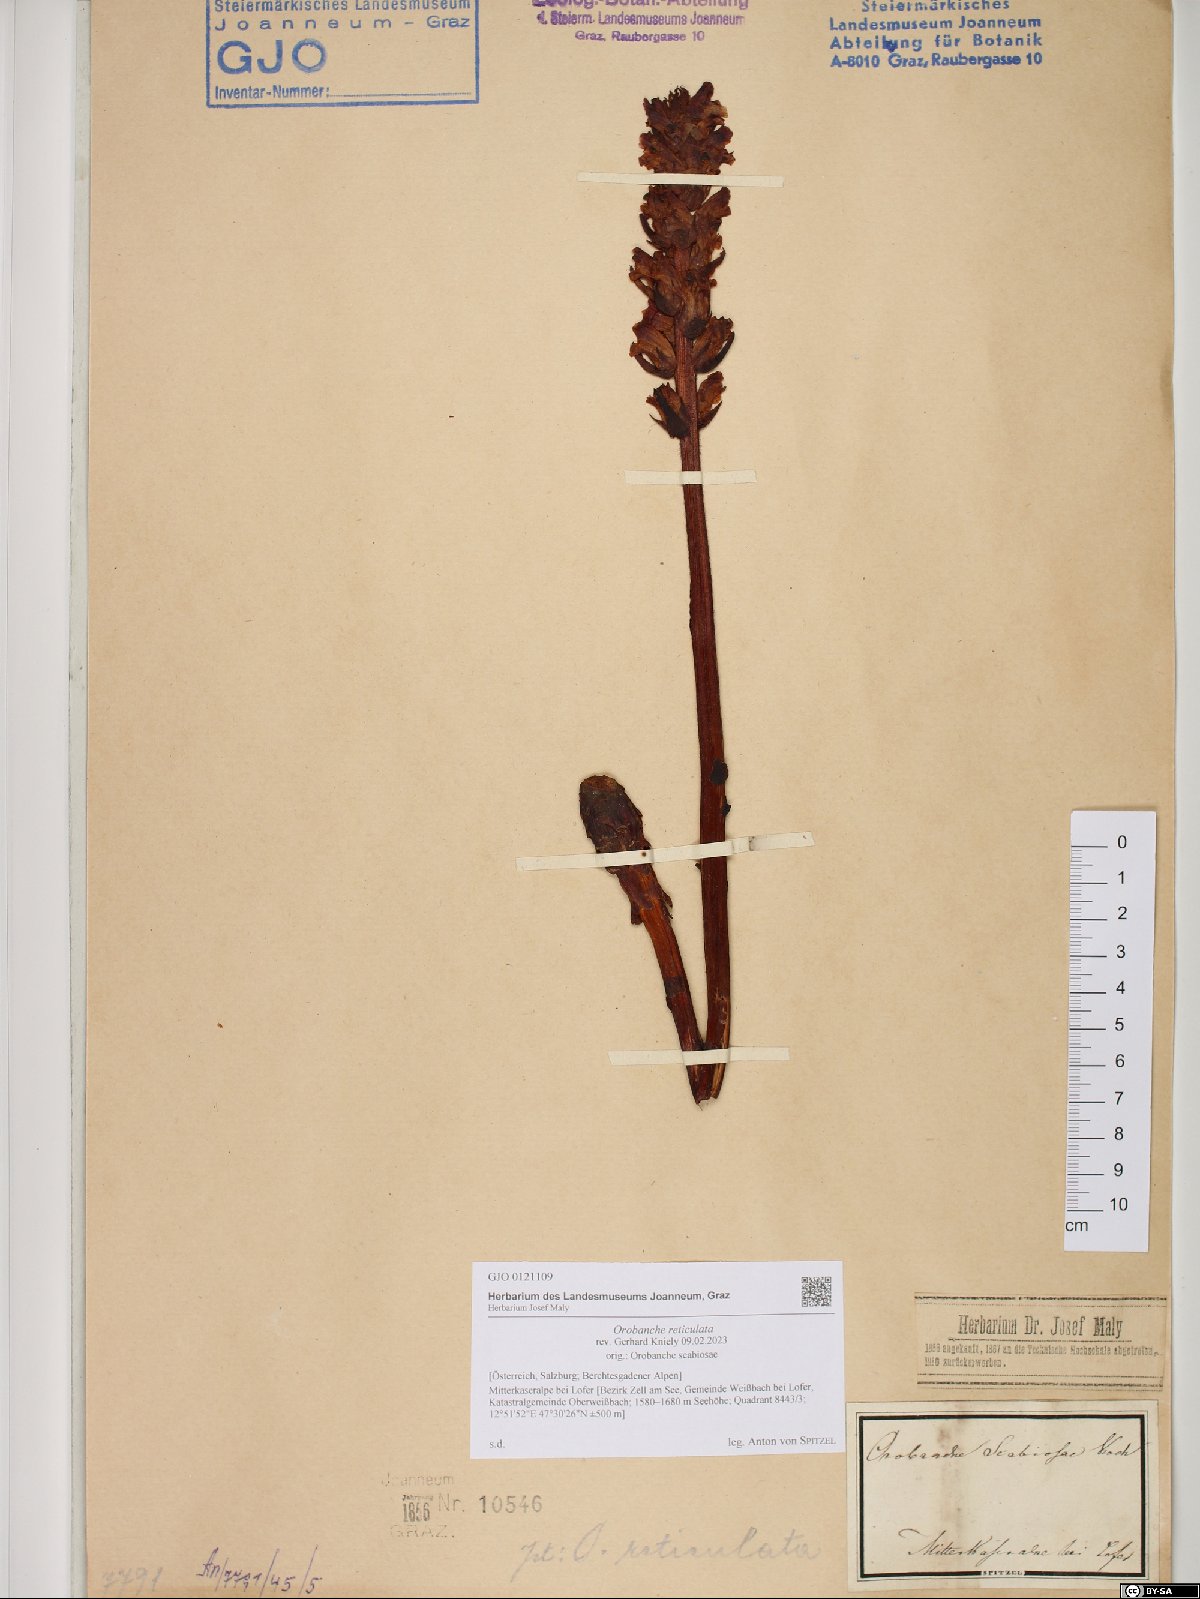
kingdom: Plantae
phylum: Tracheophyta
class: Magnoliopsida
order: Lamiales
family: Orobanchaceae
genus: Orobanche
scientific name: Orobanche reticulata
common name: Thistle broomrape
